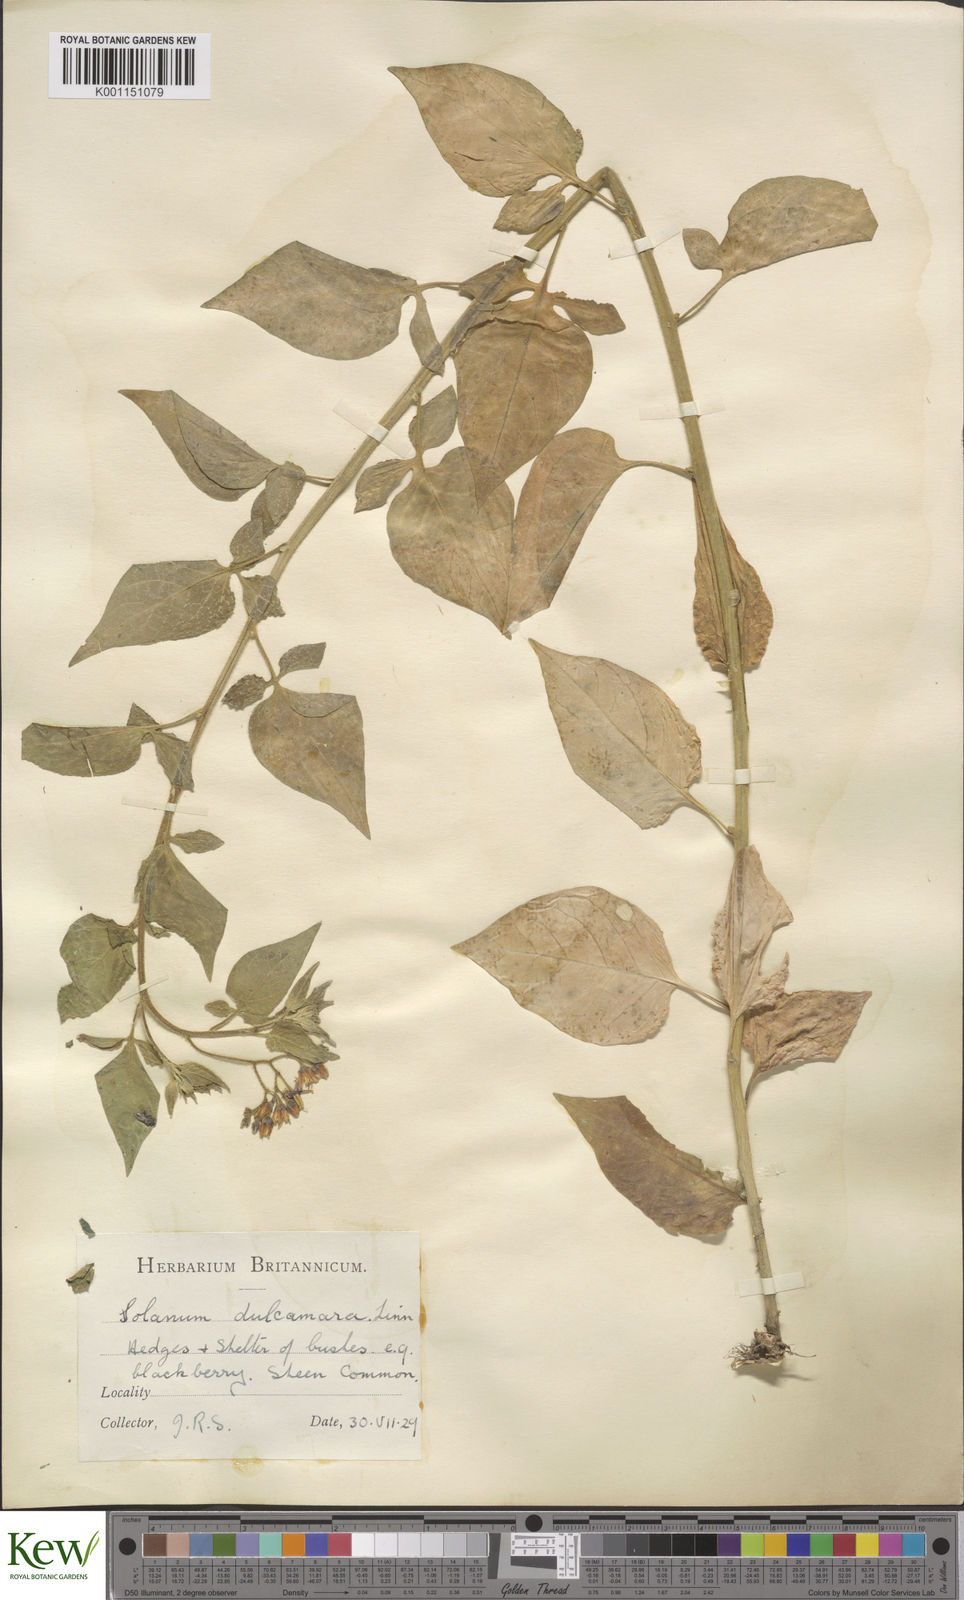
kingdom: Plantae
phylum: Tracheophyta
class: Magnoliopsida
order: Solanales
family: Solanaceae
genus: Solanum
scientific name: Solanum dulcamara
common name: Climbing nightshade
